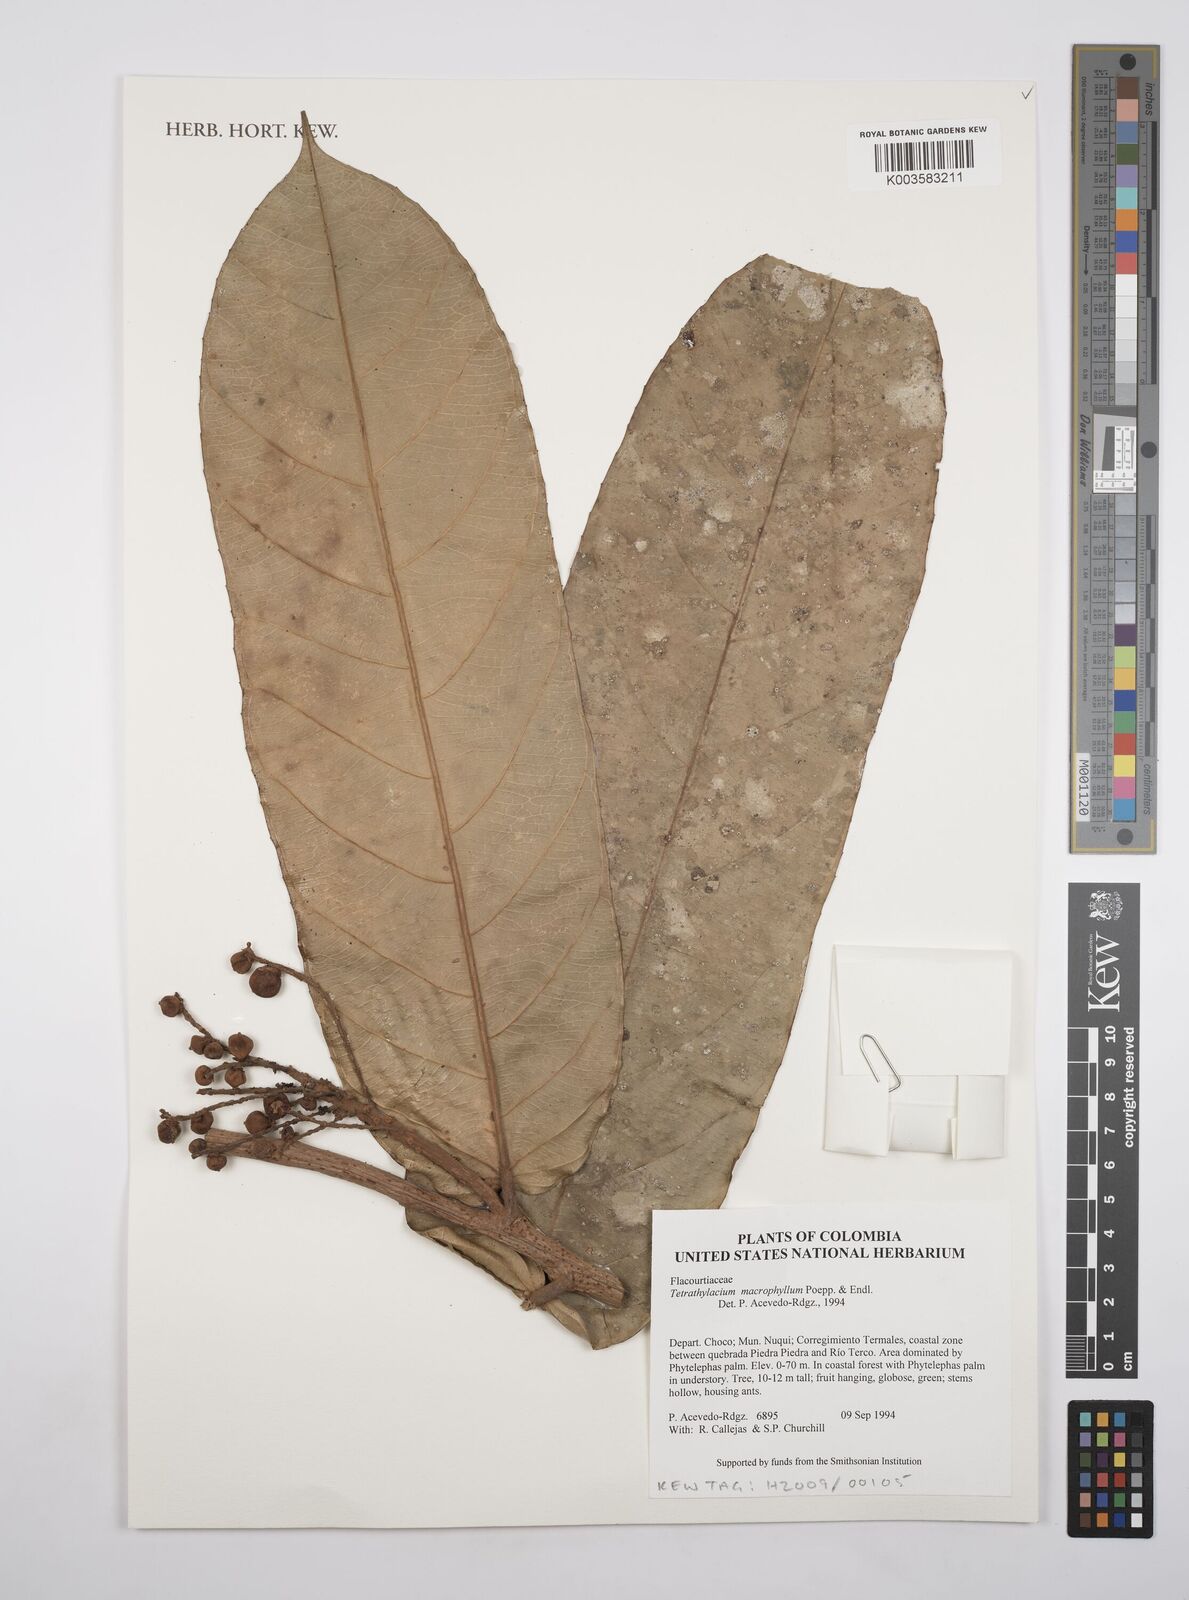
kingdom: Plantae
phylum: Tracheophyta
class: Magnoliopsida
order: Malpighiales
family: Salicaceae
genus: Tetrathylacium
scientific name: Tetrathylacium macrophyllum
